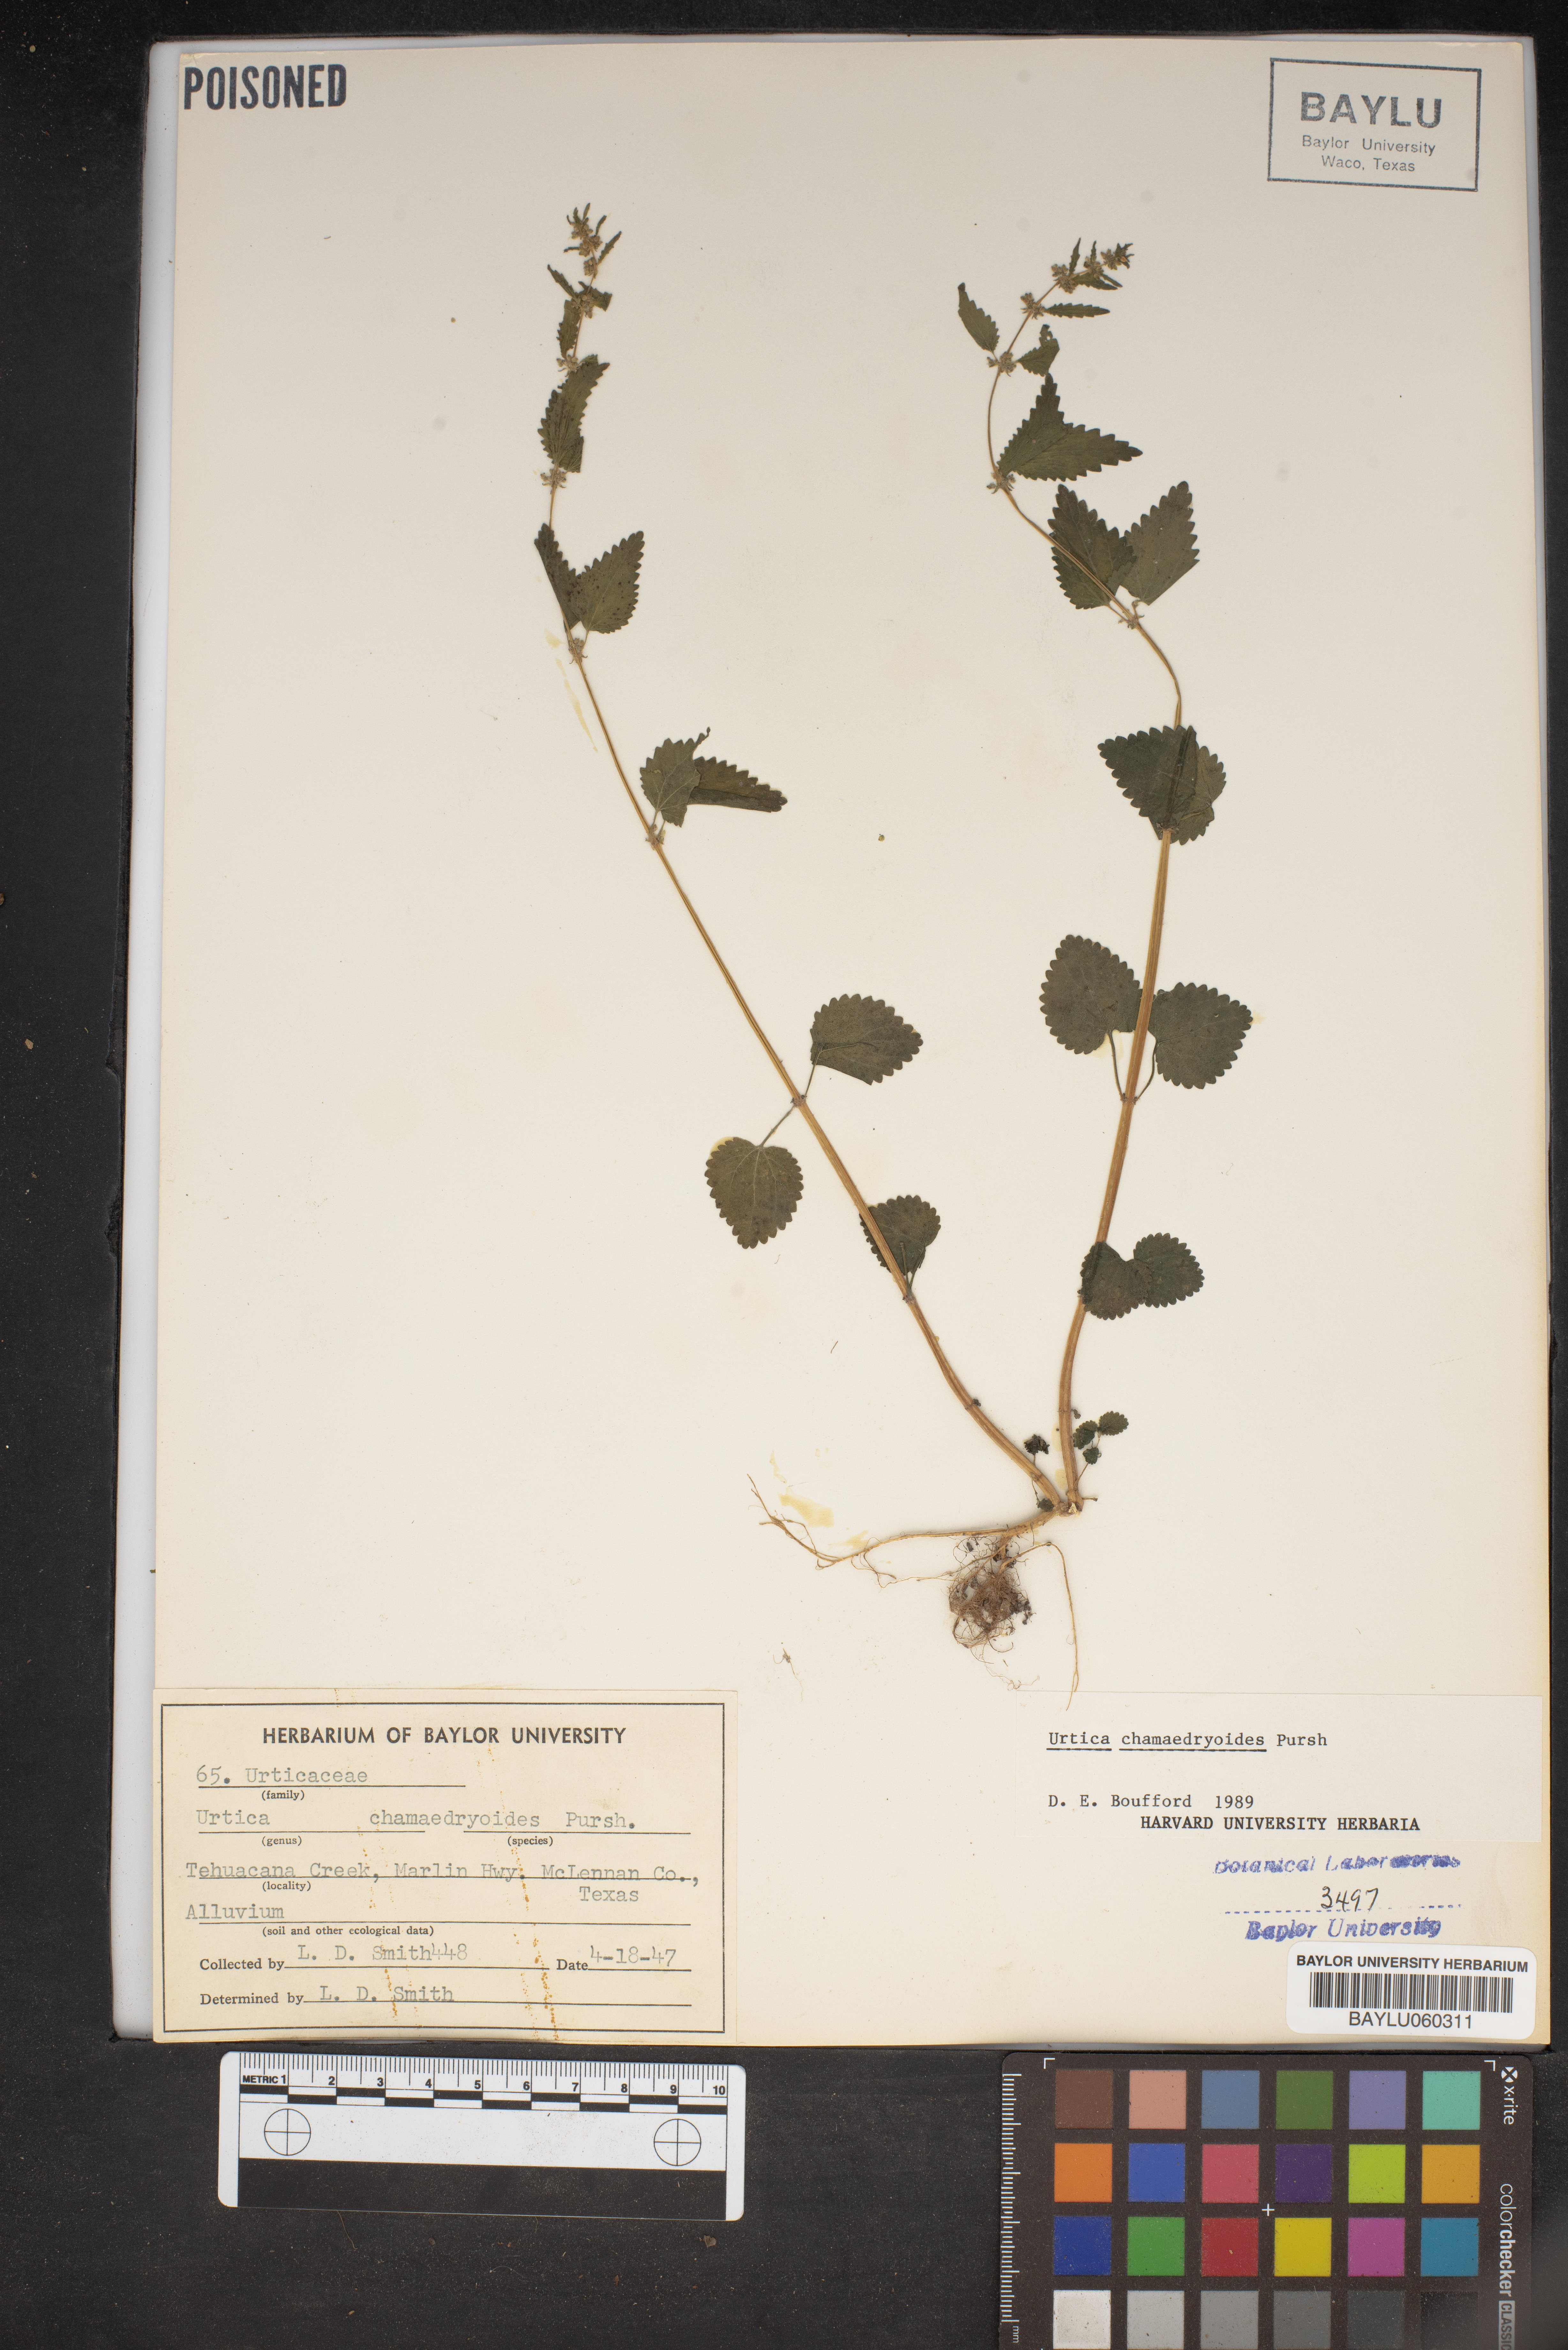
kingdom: Plantae
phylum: Tracheophyta
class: Magnoliopsida
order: Rosales
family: Urticaceae
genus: Urtica
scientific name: Urtica chamaedryoides
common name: Heart-leaf nettle
